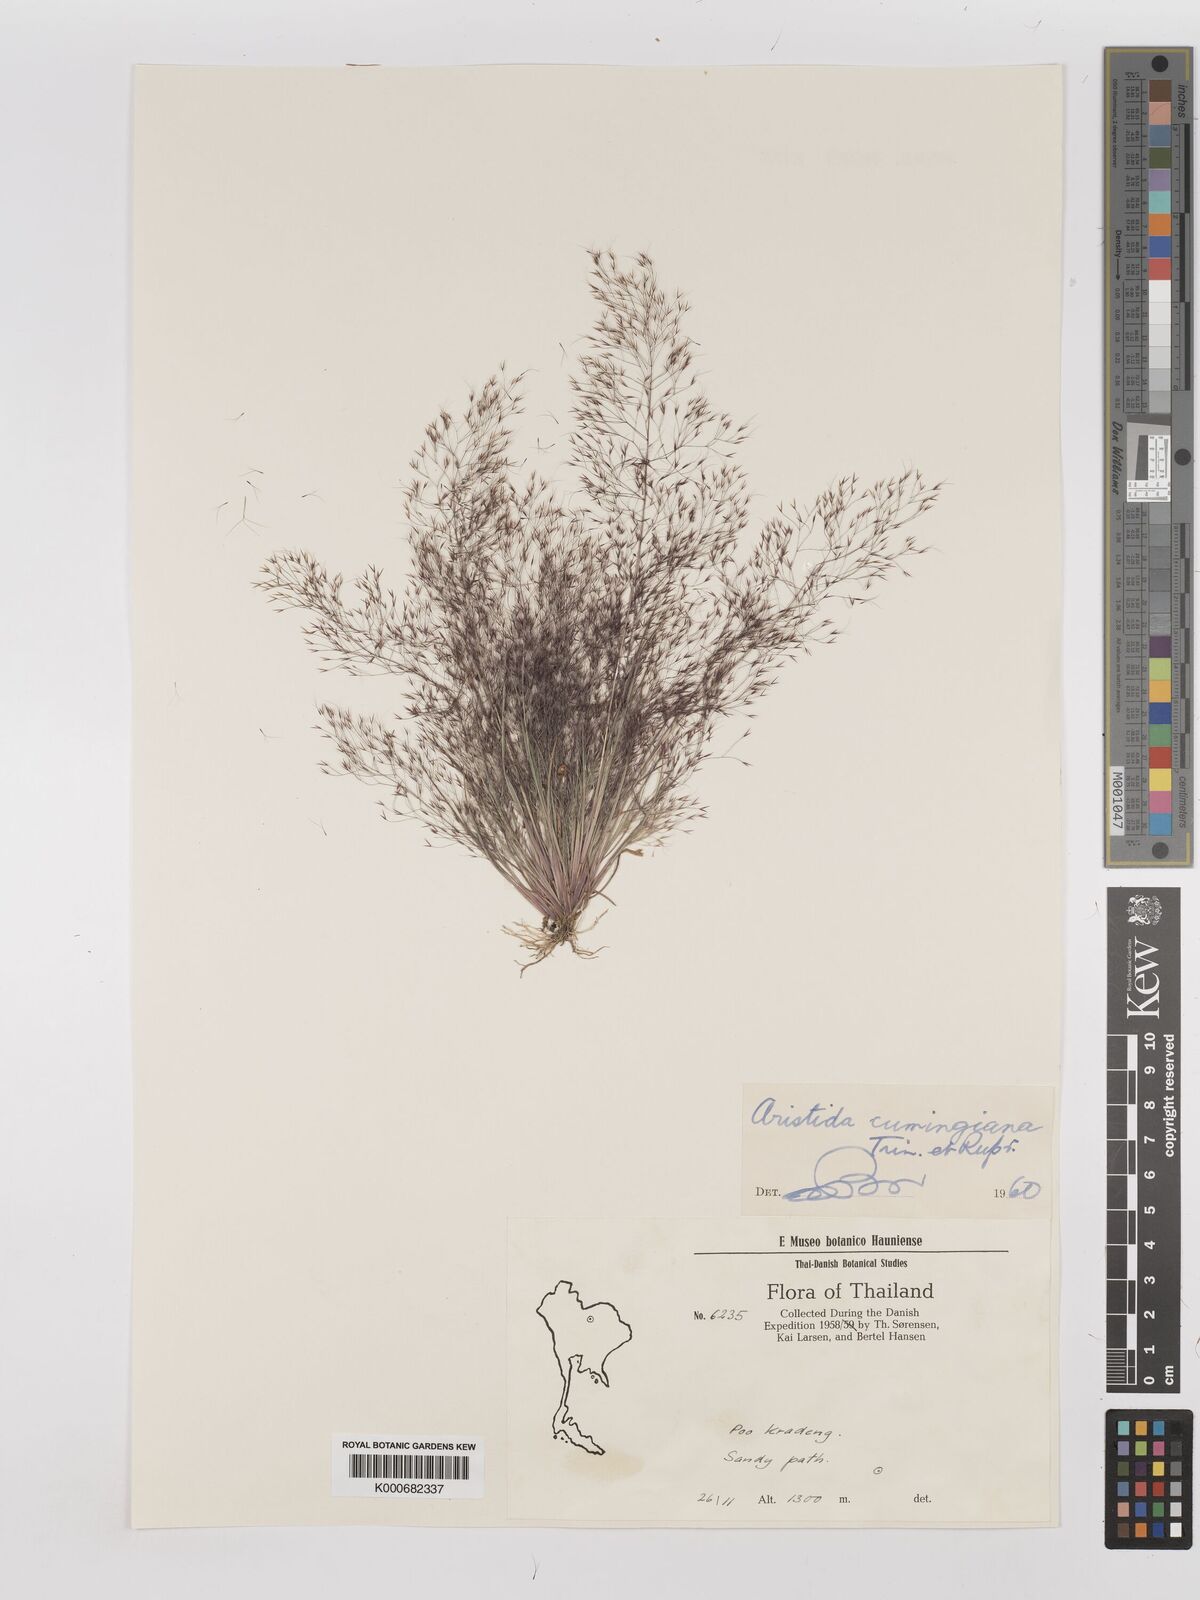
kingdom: Plantae
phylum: Tracheophyta
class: Liliopsida
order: Poales
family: Poaceae
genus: Aristida
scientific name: Aristida cumingiana
